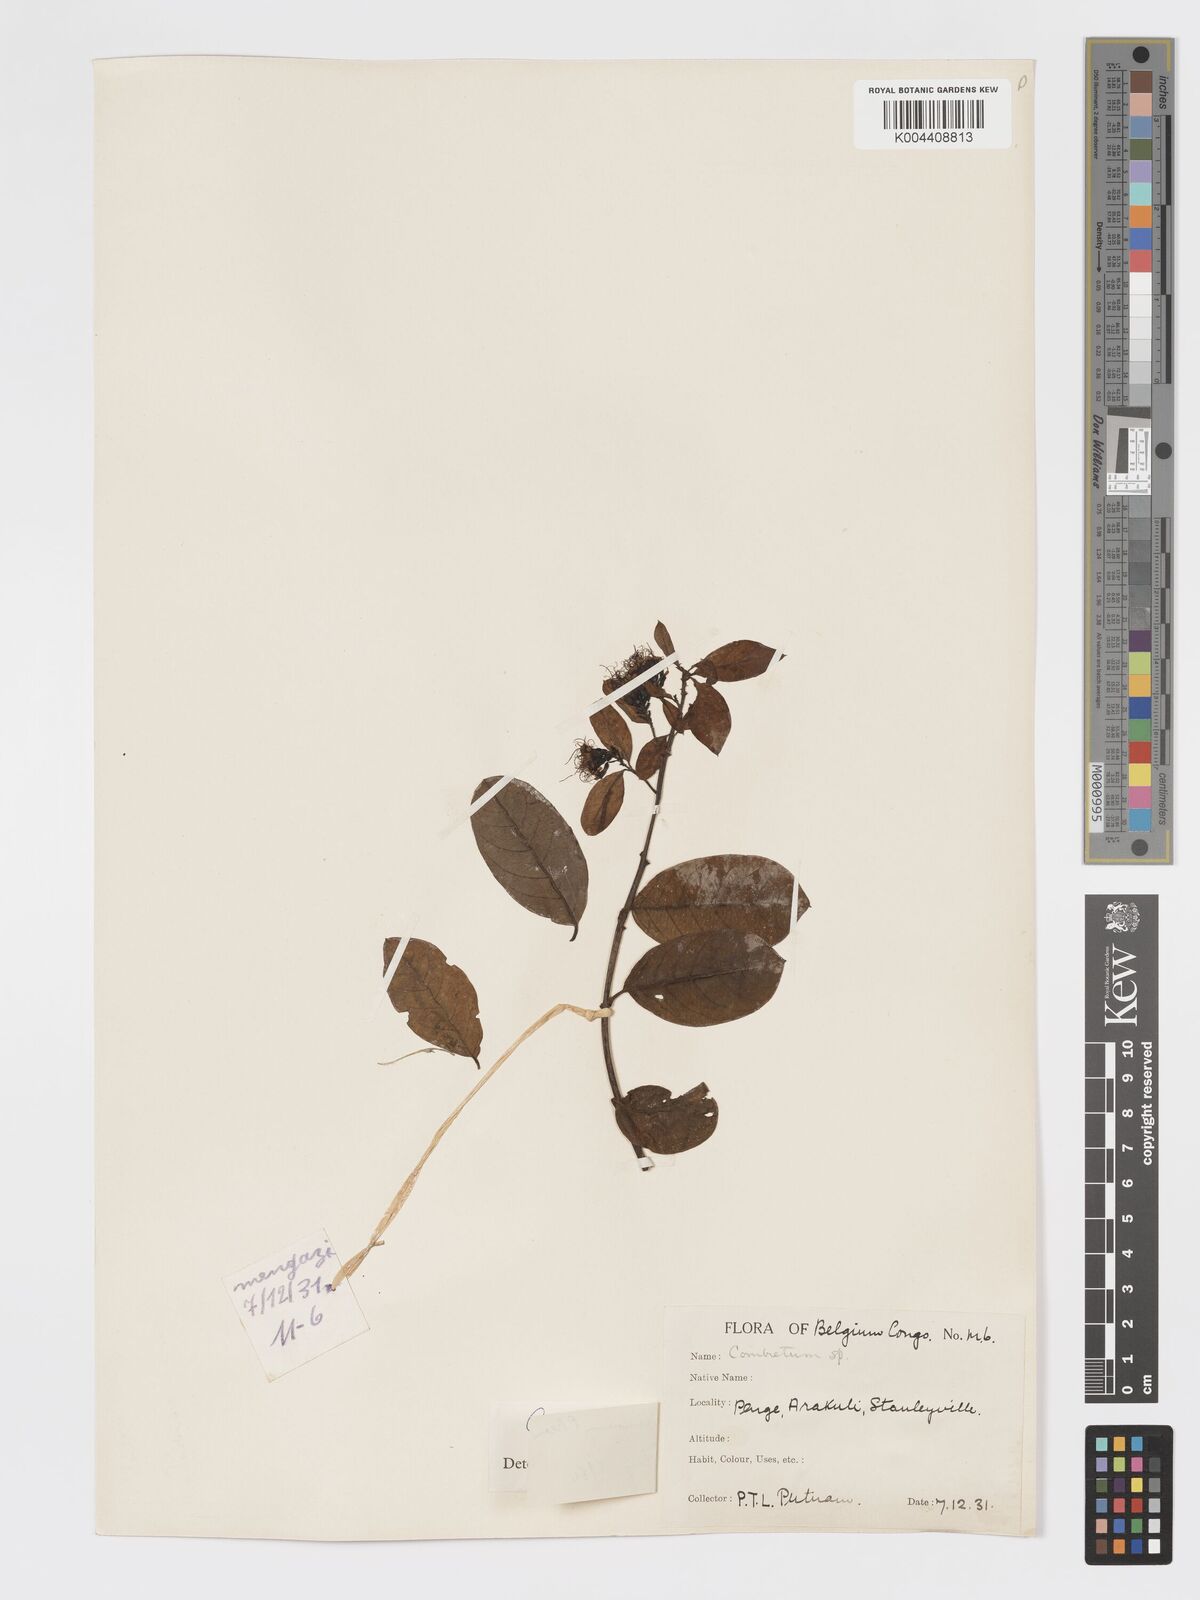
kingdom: Plantae
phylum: Tracheophyta
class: Magnoliopsida
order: Myrtales
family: Combretaceae
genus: Combretum
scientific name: Combretum racemosum
